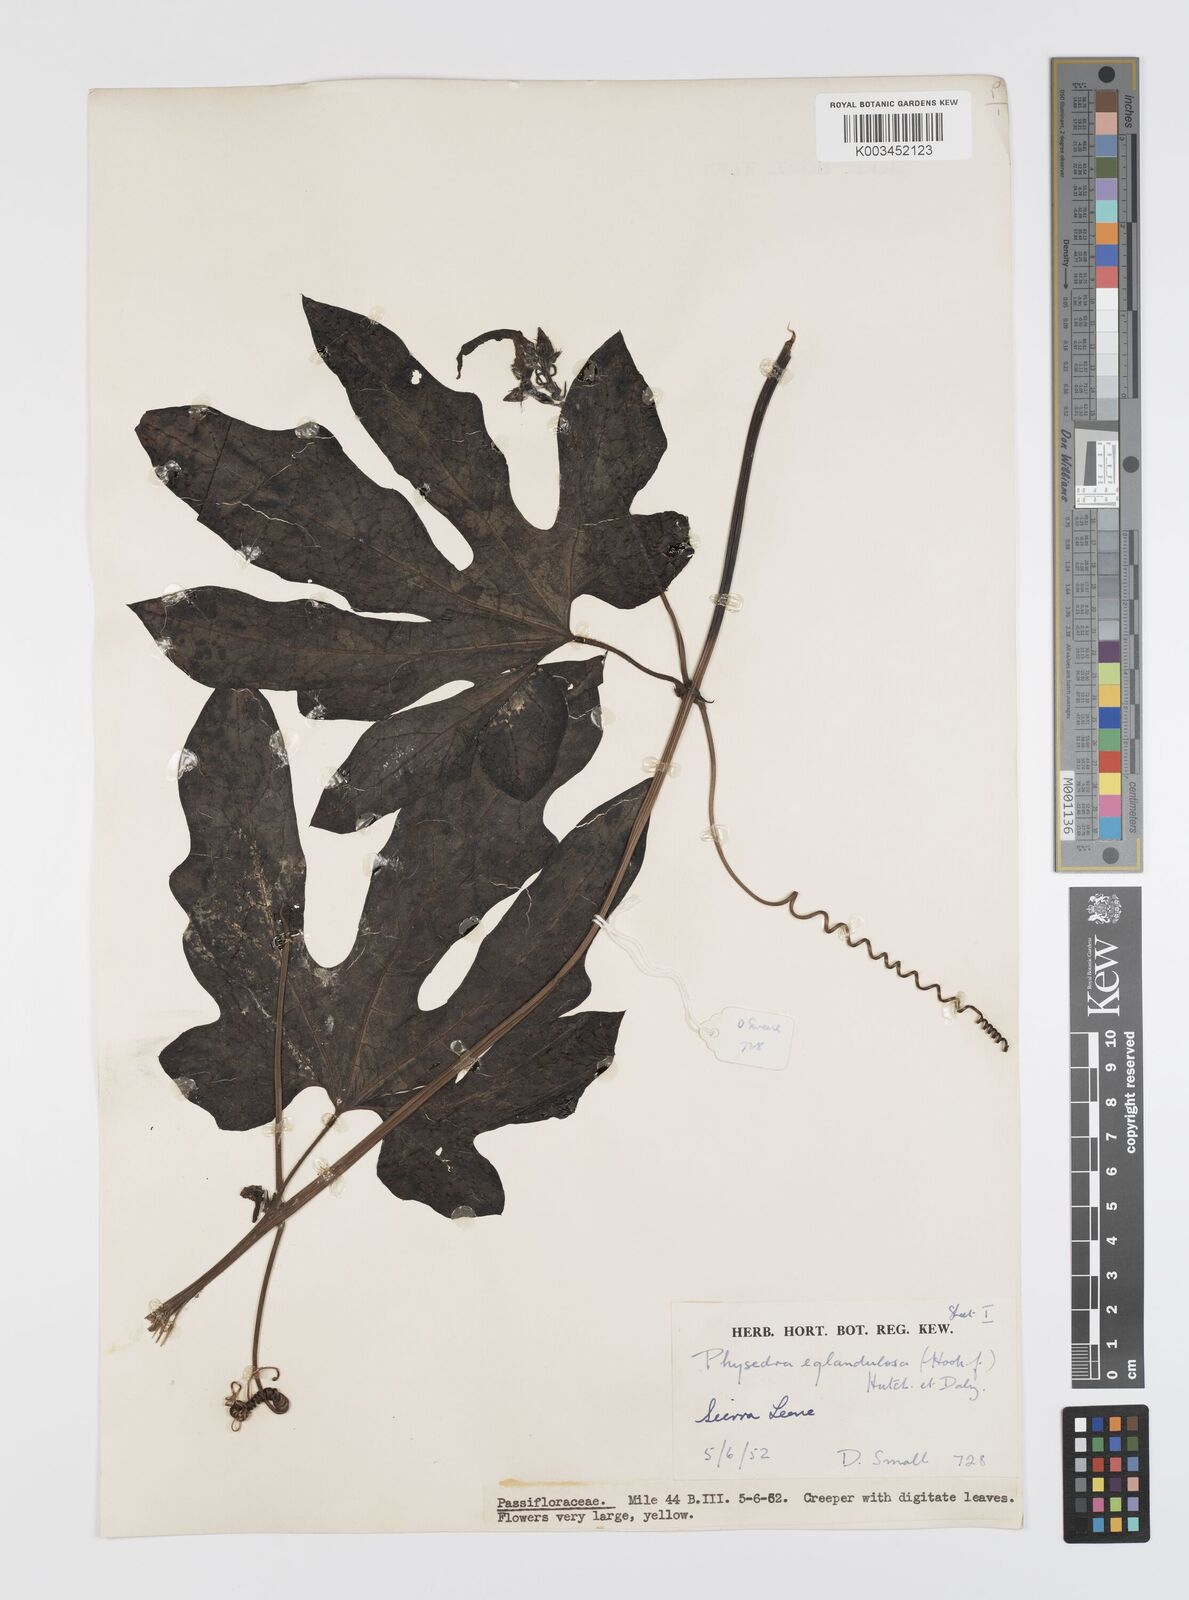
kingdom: Plantae
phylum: Tracheophyta
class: Magnoliopsida
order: Cucurbitales
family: Cucurbitaceae
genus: Ruthalicia
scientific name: Ruthalicia eglandulosa
